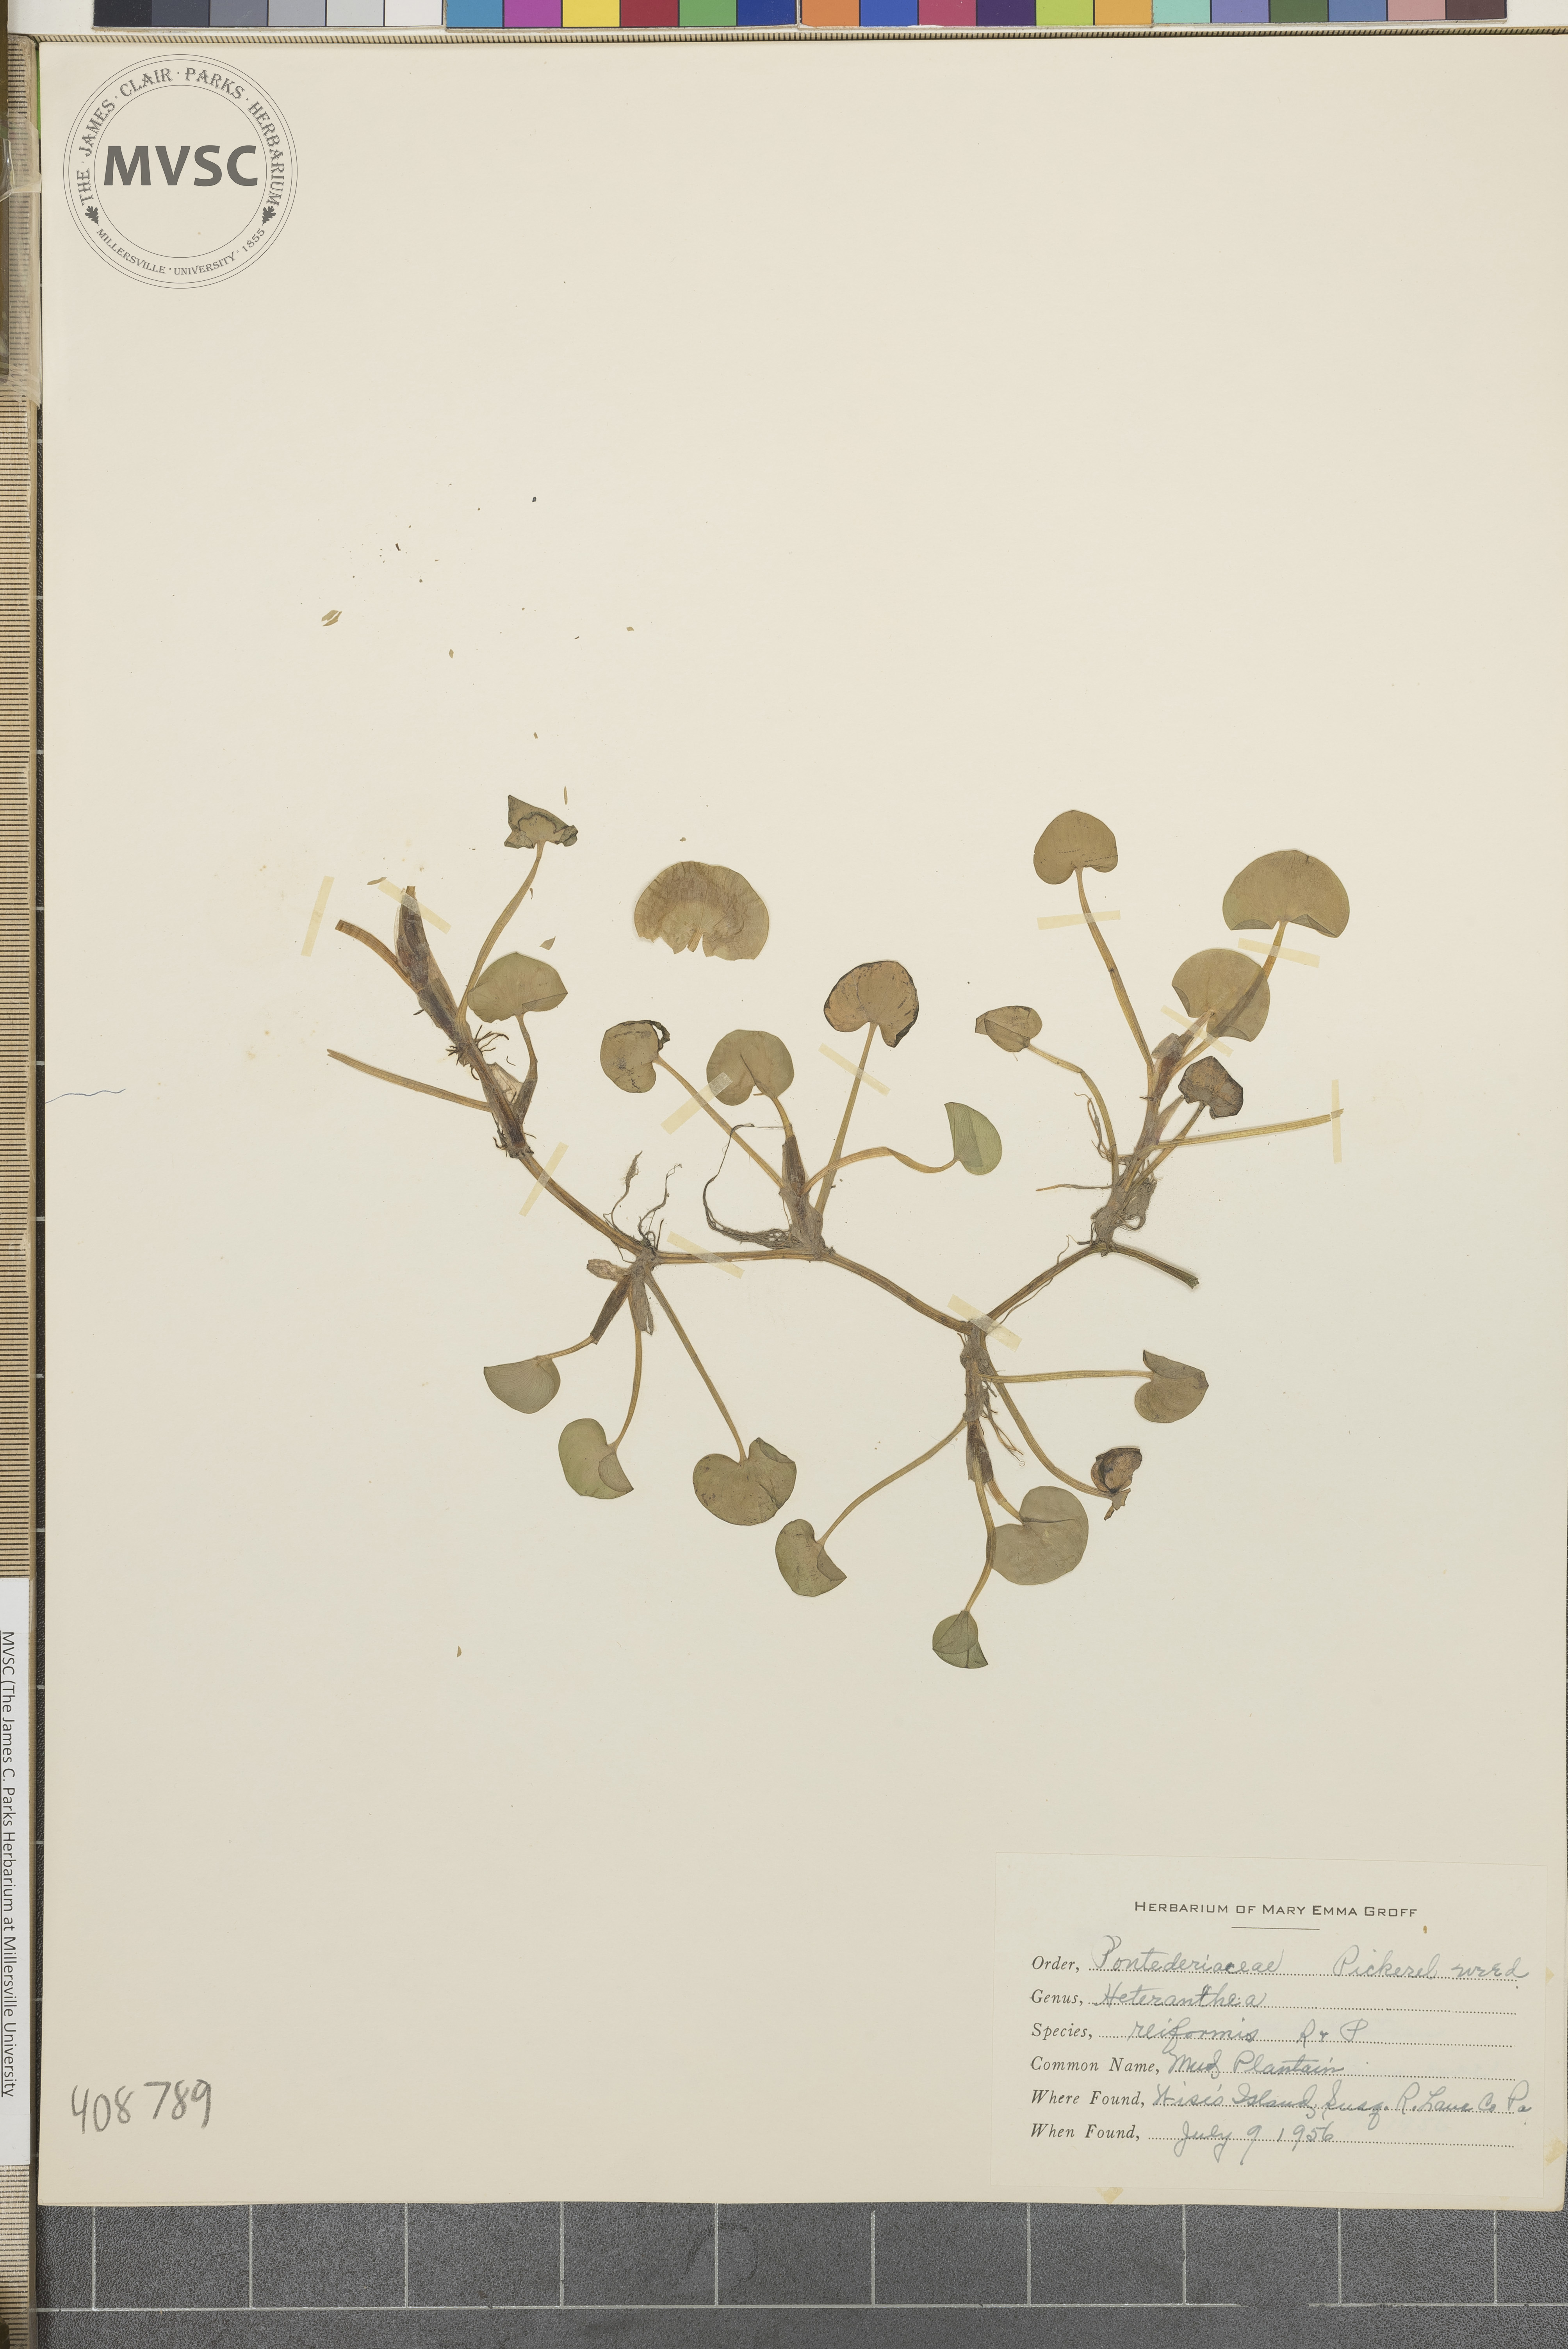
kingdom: Plantae
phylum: Tracheophyta
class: Liliopsida
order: Commelinales
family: Pontederiaceae
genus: Heteranthera
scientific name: Heteranthera reniformis
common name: mud plantain
